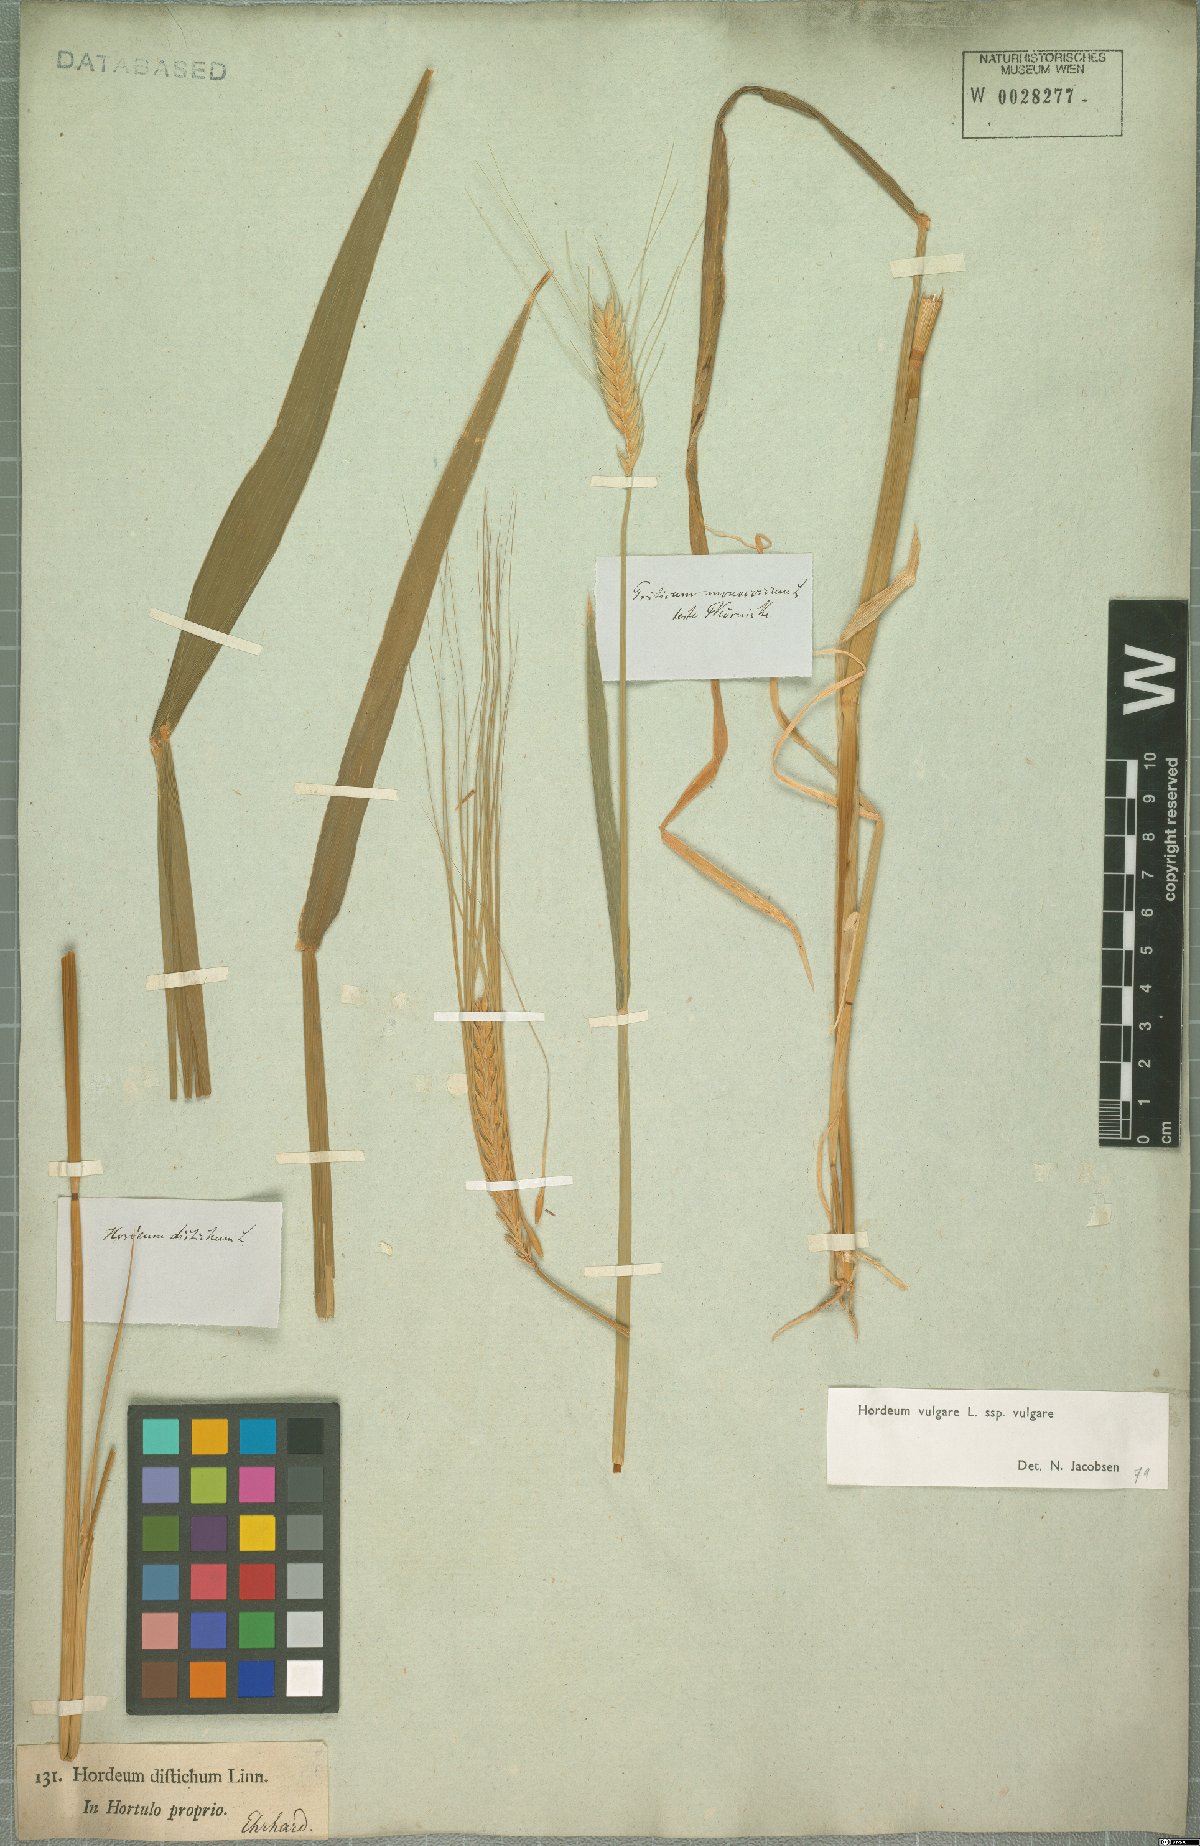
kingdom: Plantae
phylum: Tracheophyta
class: Liliopsida
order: Poales
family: Poaceae
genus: Hordeum
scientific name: Hordeum vulgare
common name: Common barley
